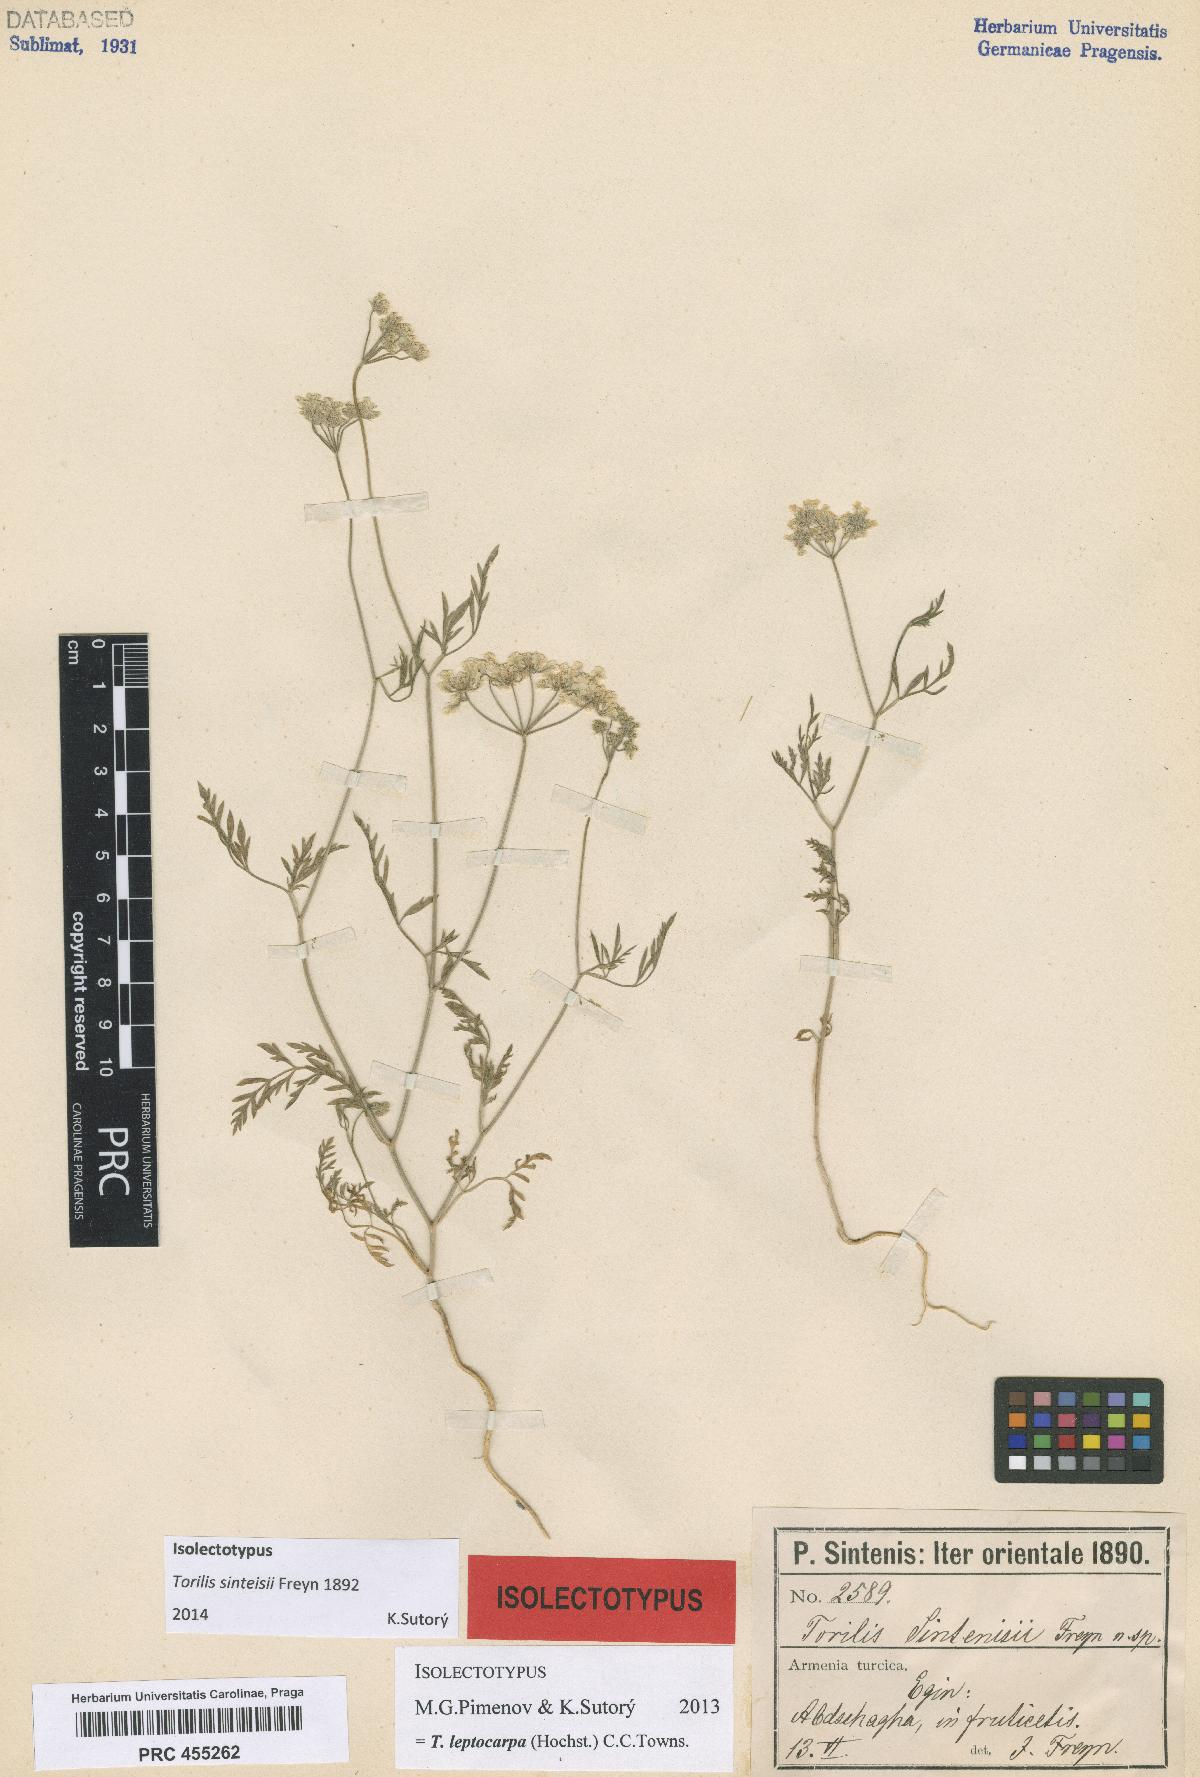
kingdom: Plantae
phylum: Tracheophyta
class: Magnoliopsida
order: Apiales
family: Apiaceae
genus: Torilis
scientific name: Torilis leptocarpa
